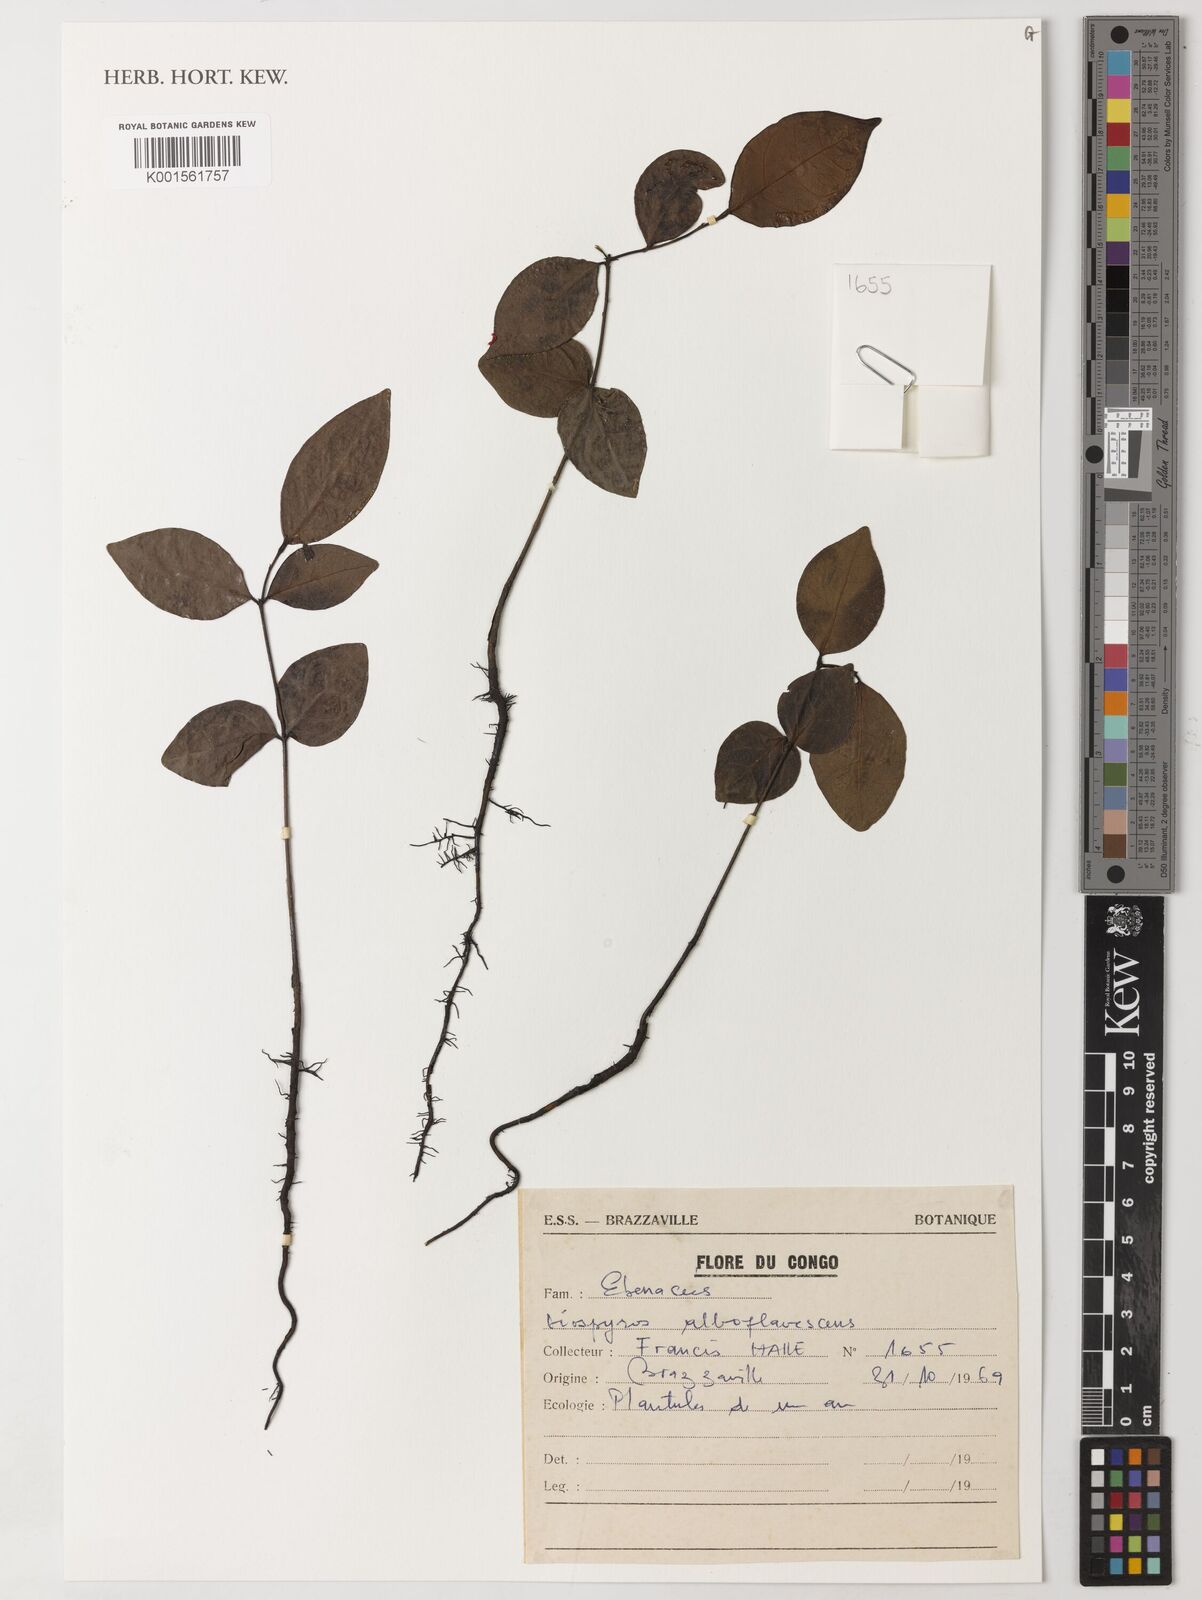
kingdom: Plantae
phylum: Tracheophyta
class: Magnoliopsida
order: Ericales
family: Ebenaceae
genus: Diospyros
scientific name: Diospyros alboflavescens
